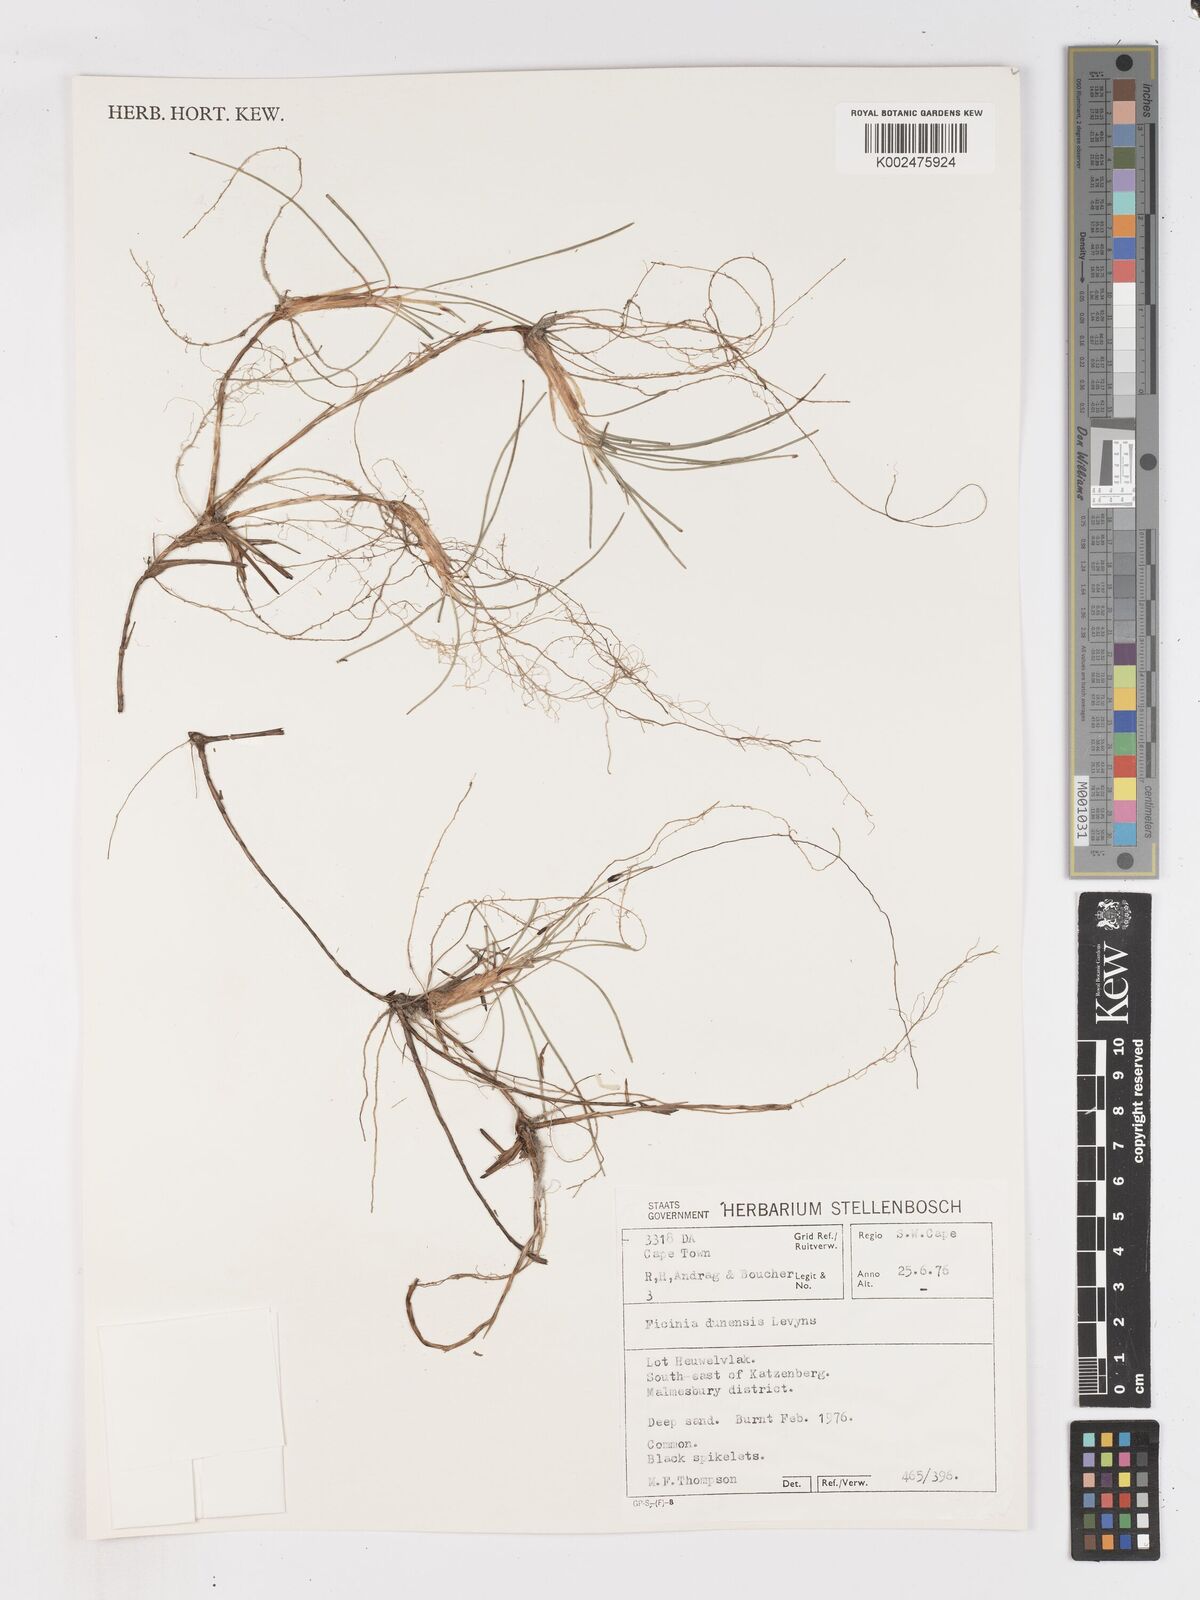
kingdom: Plantae
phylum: Tracheophyta
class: Liliopsida
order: Poales
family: Cyperaceae
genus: Ficinia
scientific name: Ficinia dunensis
